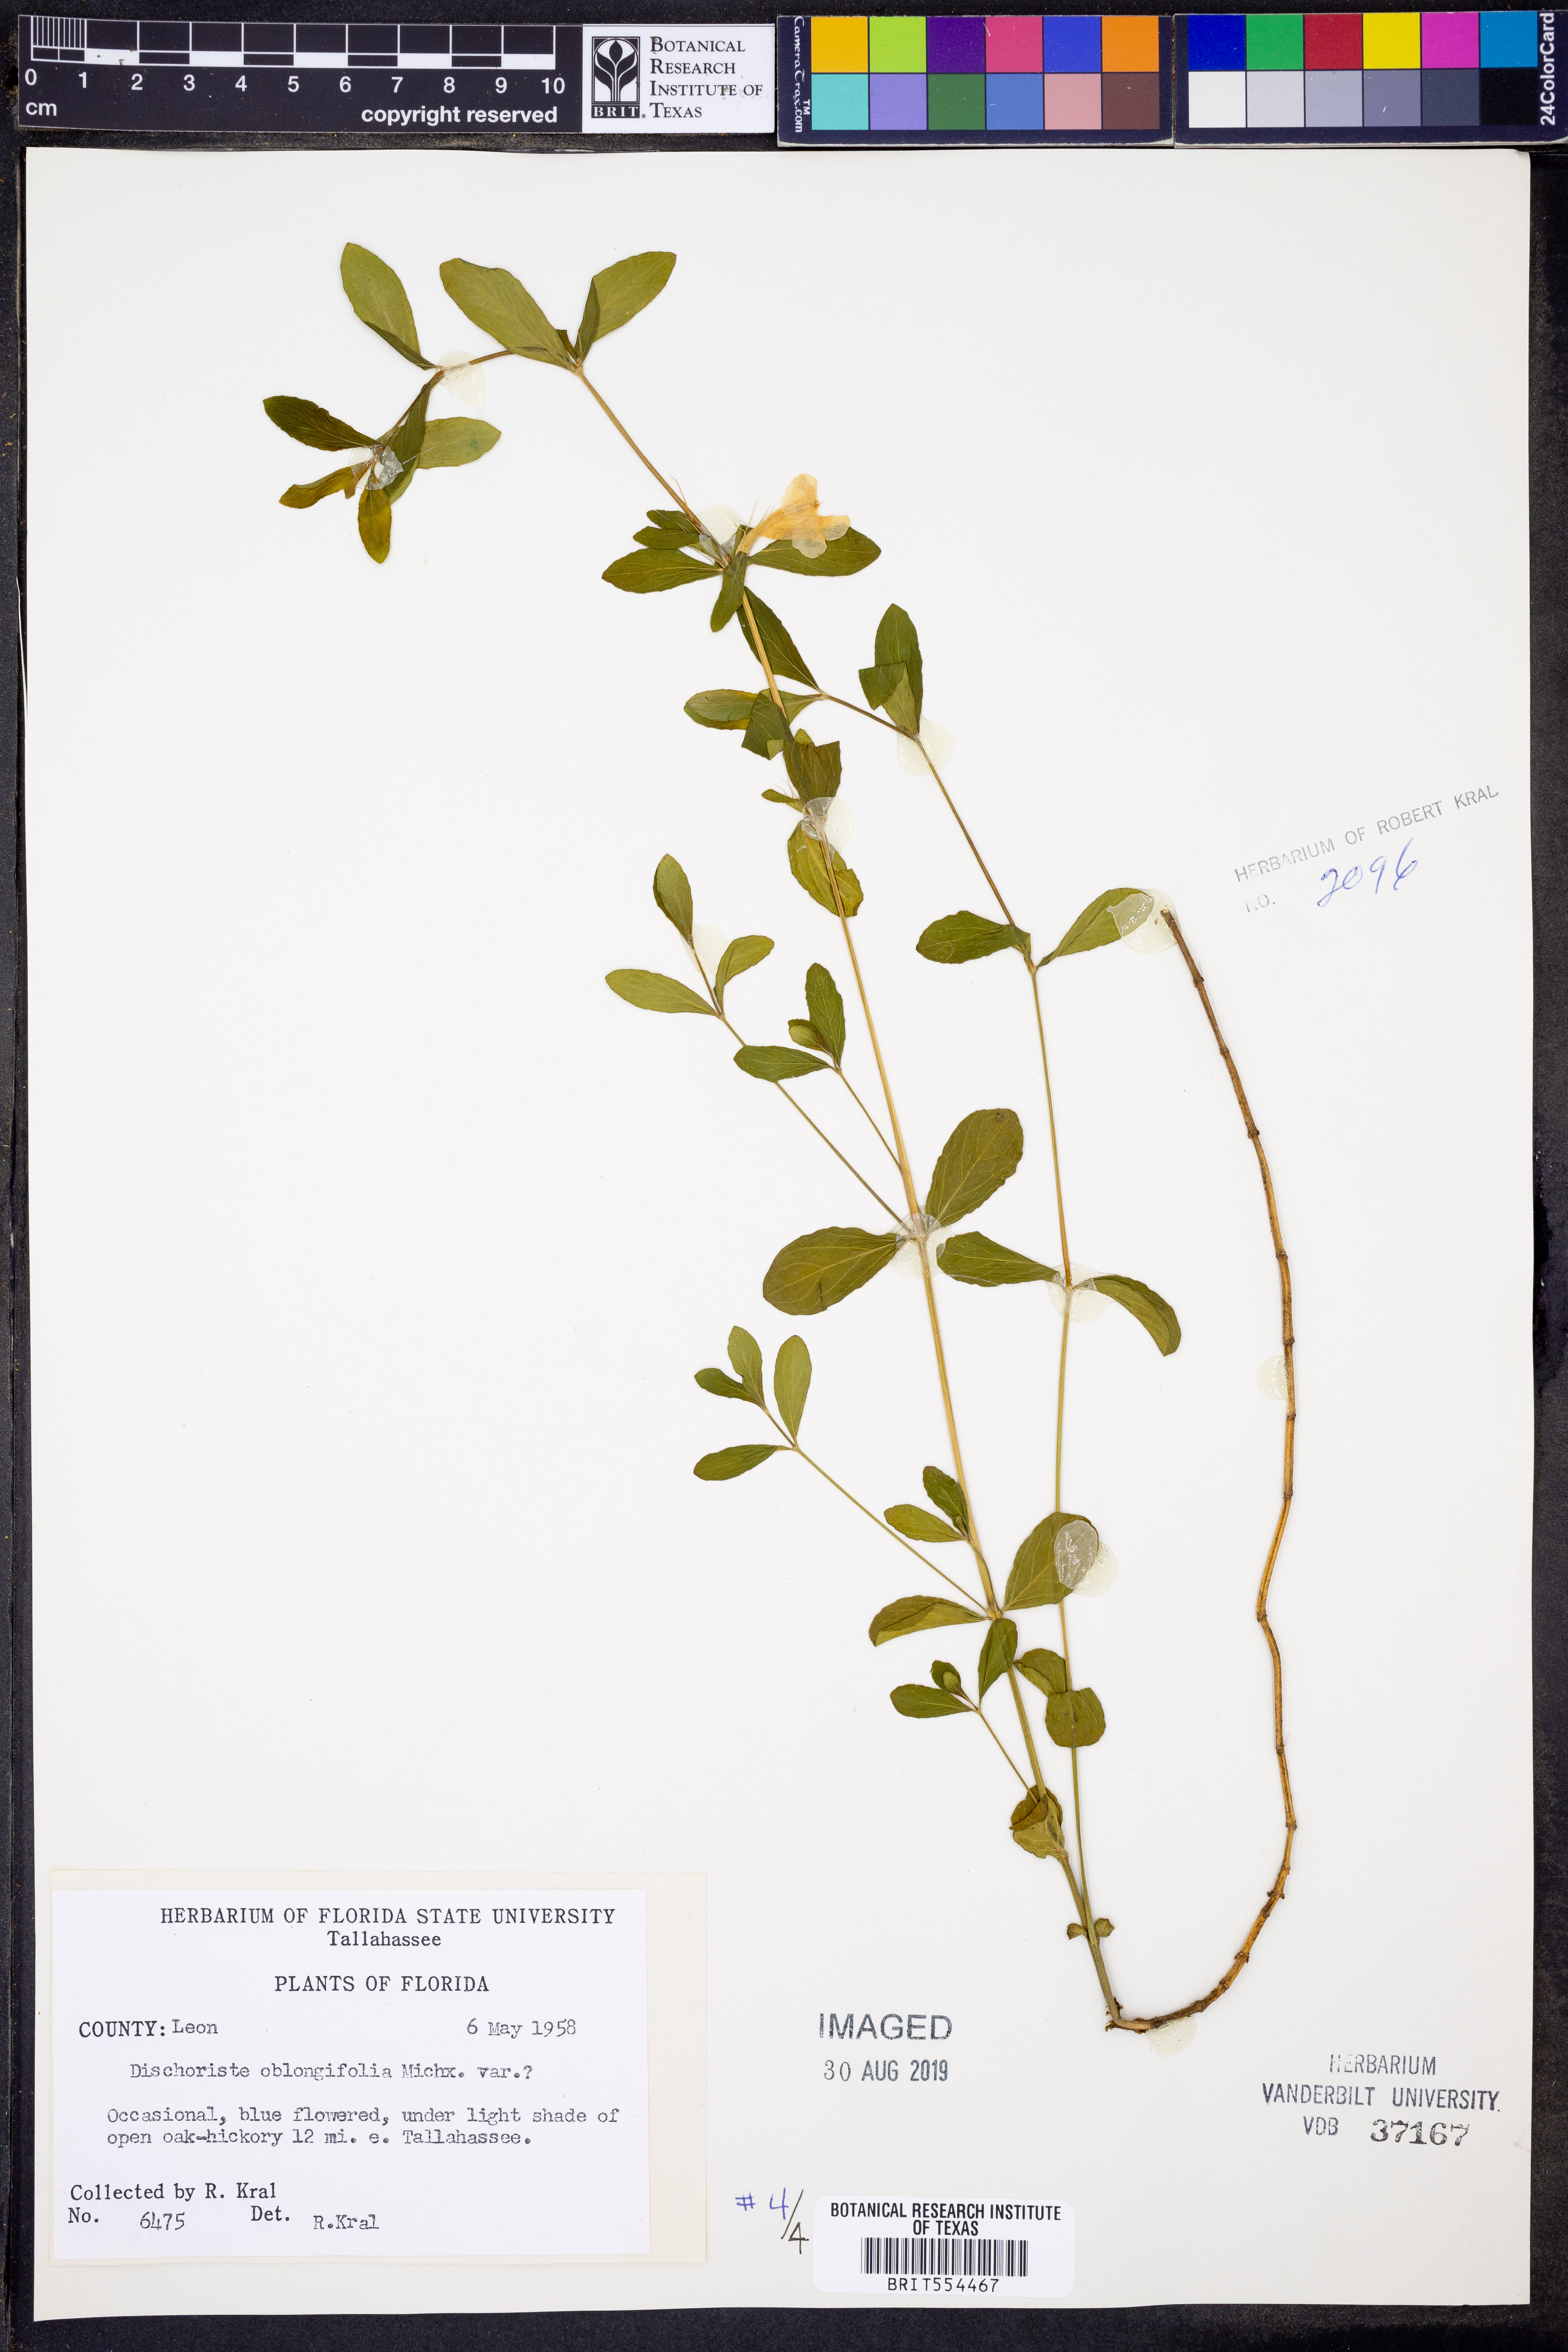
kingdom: Plantae
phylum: Tracheophyta
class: Magnoliopsida
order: Lamiales
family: Acanthaceae
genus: Dyschoriste
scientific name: Dyschoriste oblongifolia
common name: Blue twinflower
